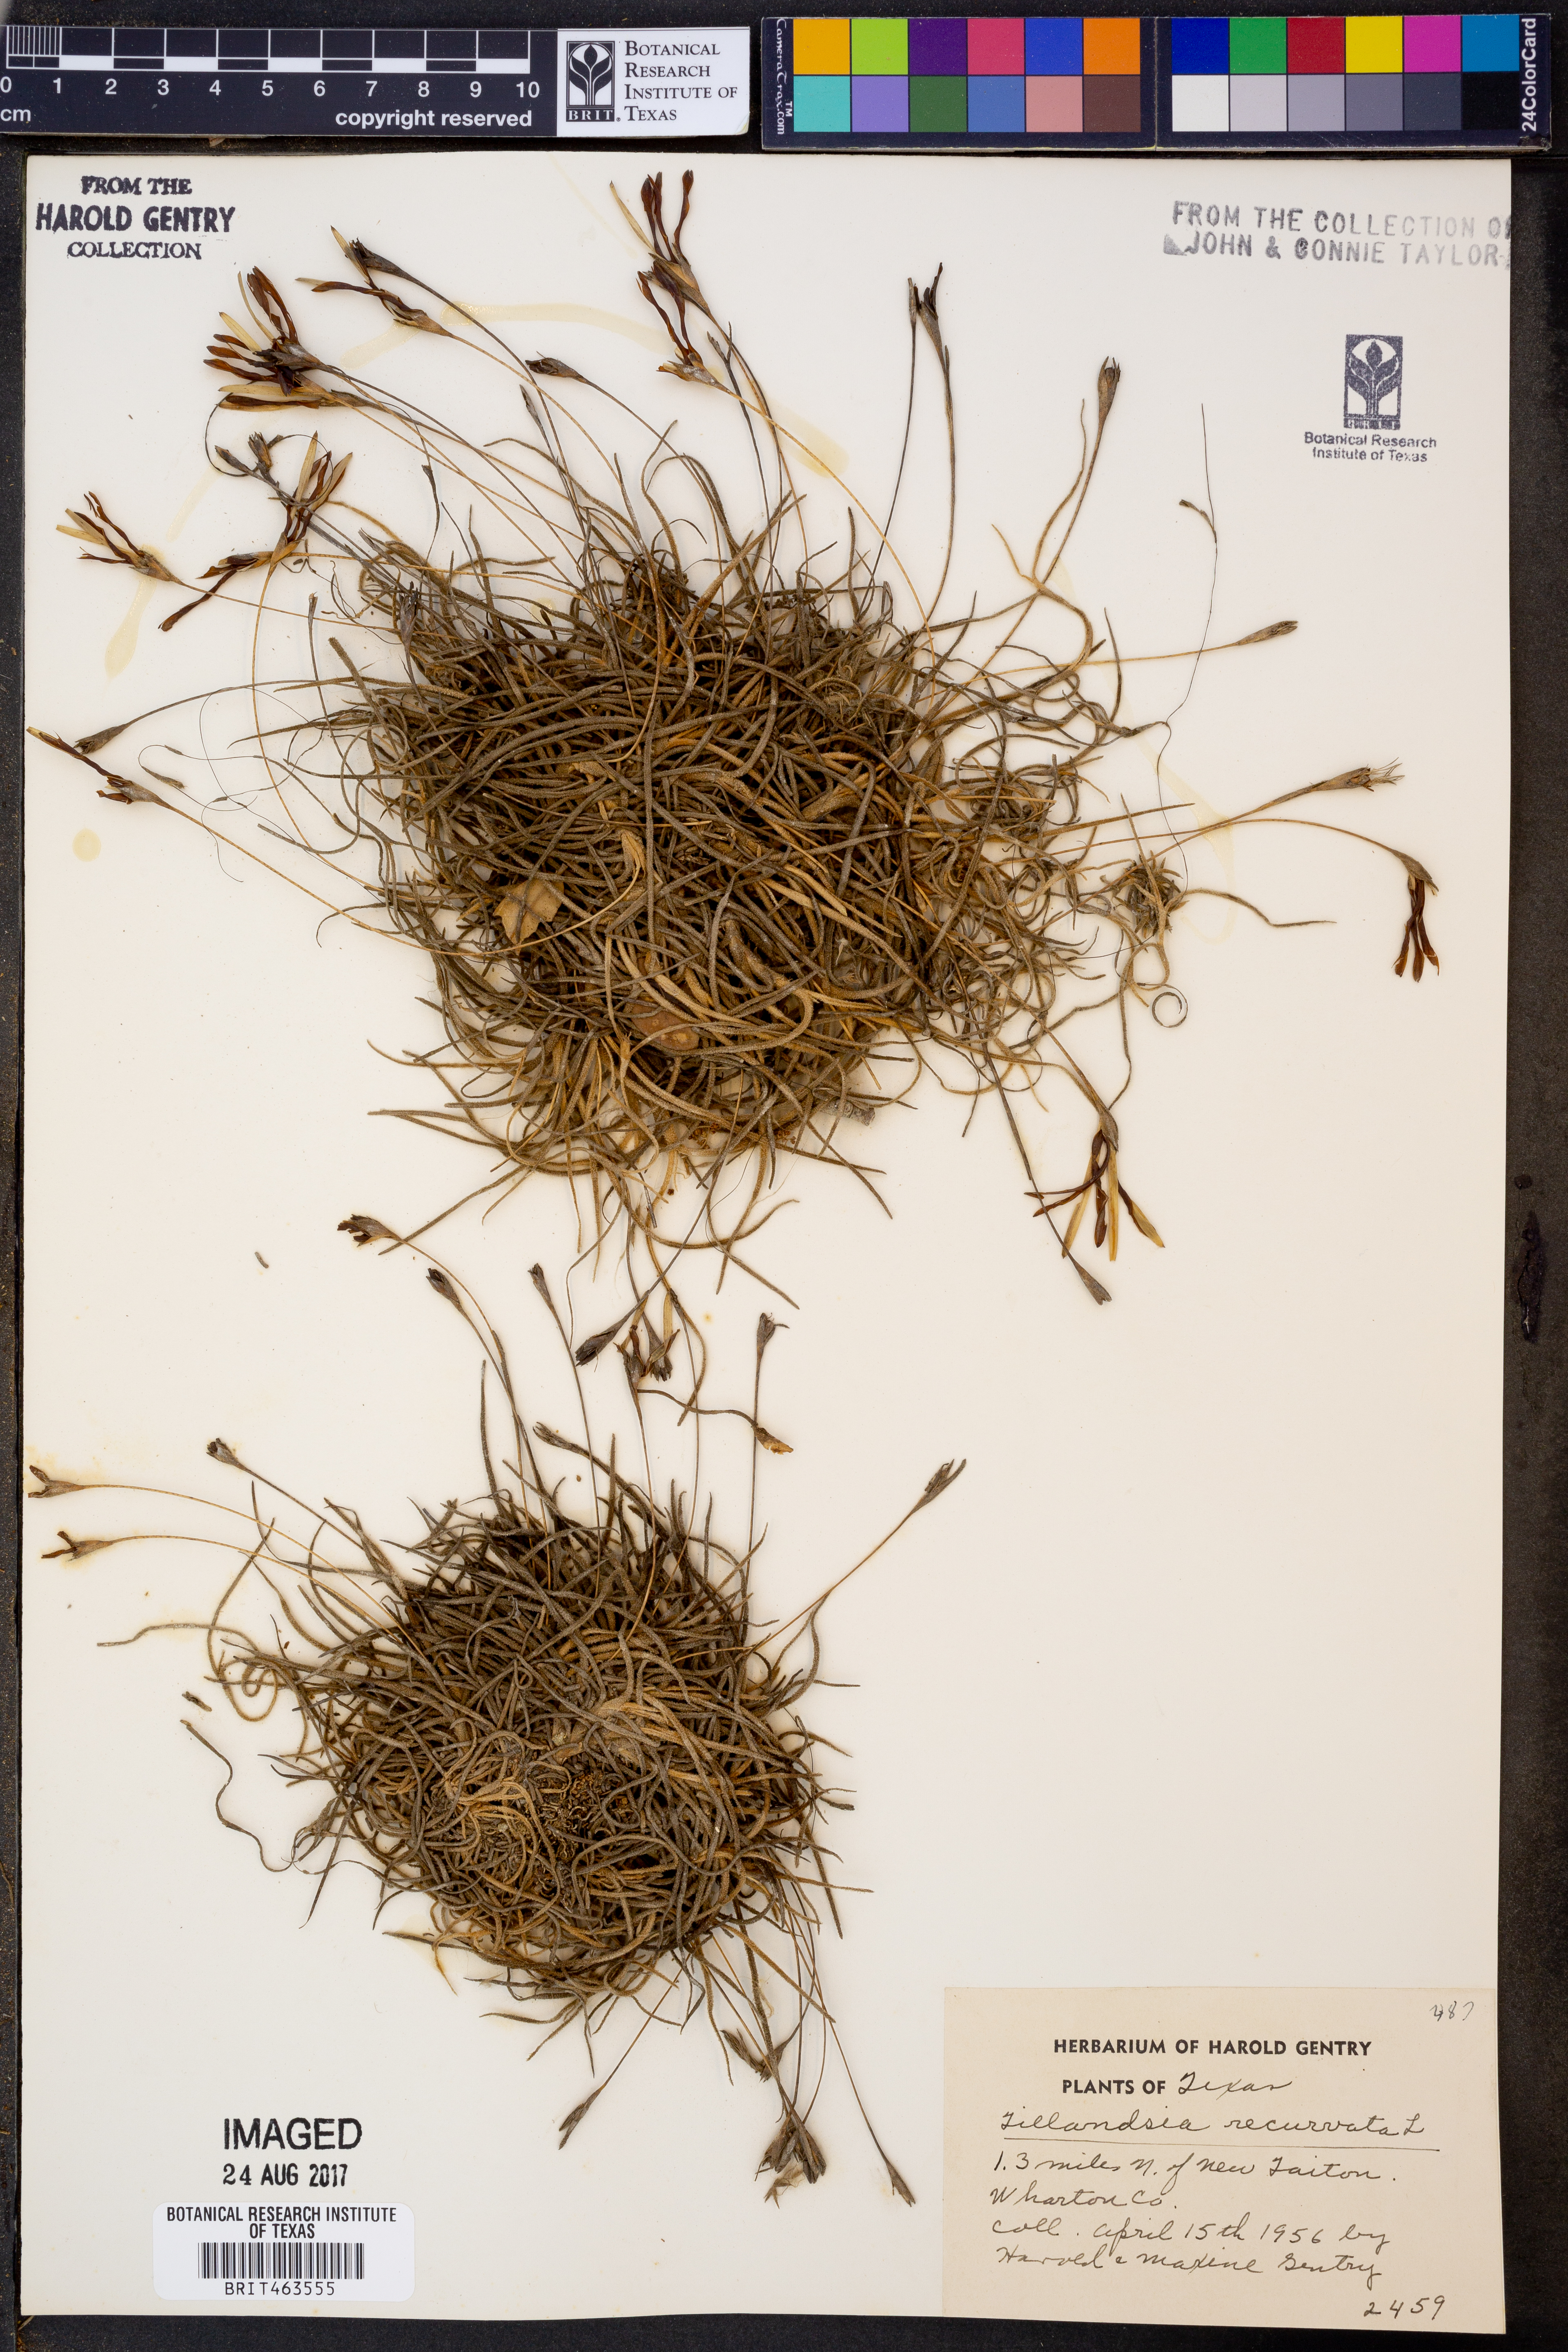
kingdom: Plantae
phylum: Tracheophyta
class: Liliopsida
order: Poales
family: Bromeliaceae
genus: Tillandsia
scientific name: Tillandsia recurvata
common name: Small ballmoss
